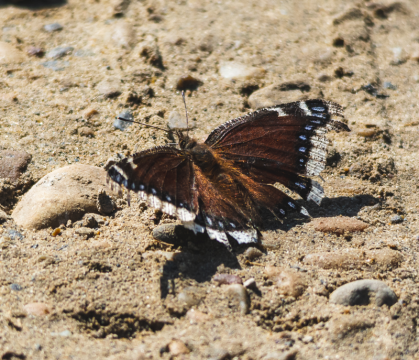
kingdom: Animalia
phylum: Arthropoda
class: Insecta
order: Lepidoptera
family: Nymphalidae
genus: Nymphalis
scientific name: Nymphalis antiopa
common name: Mourning Cloak
